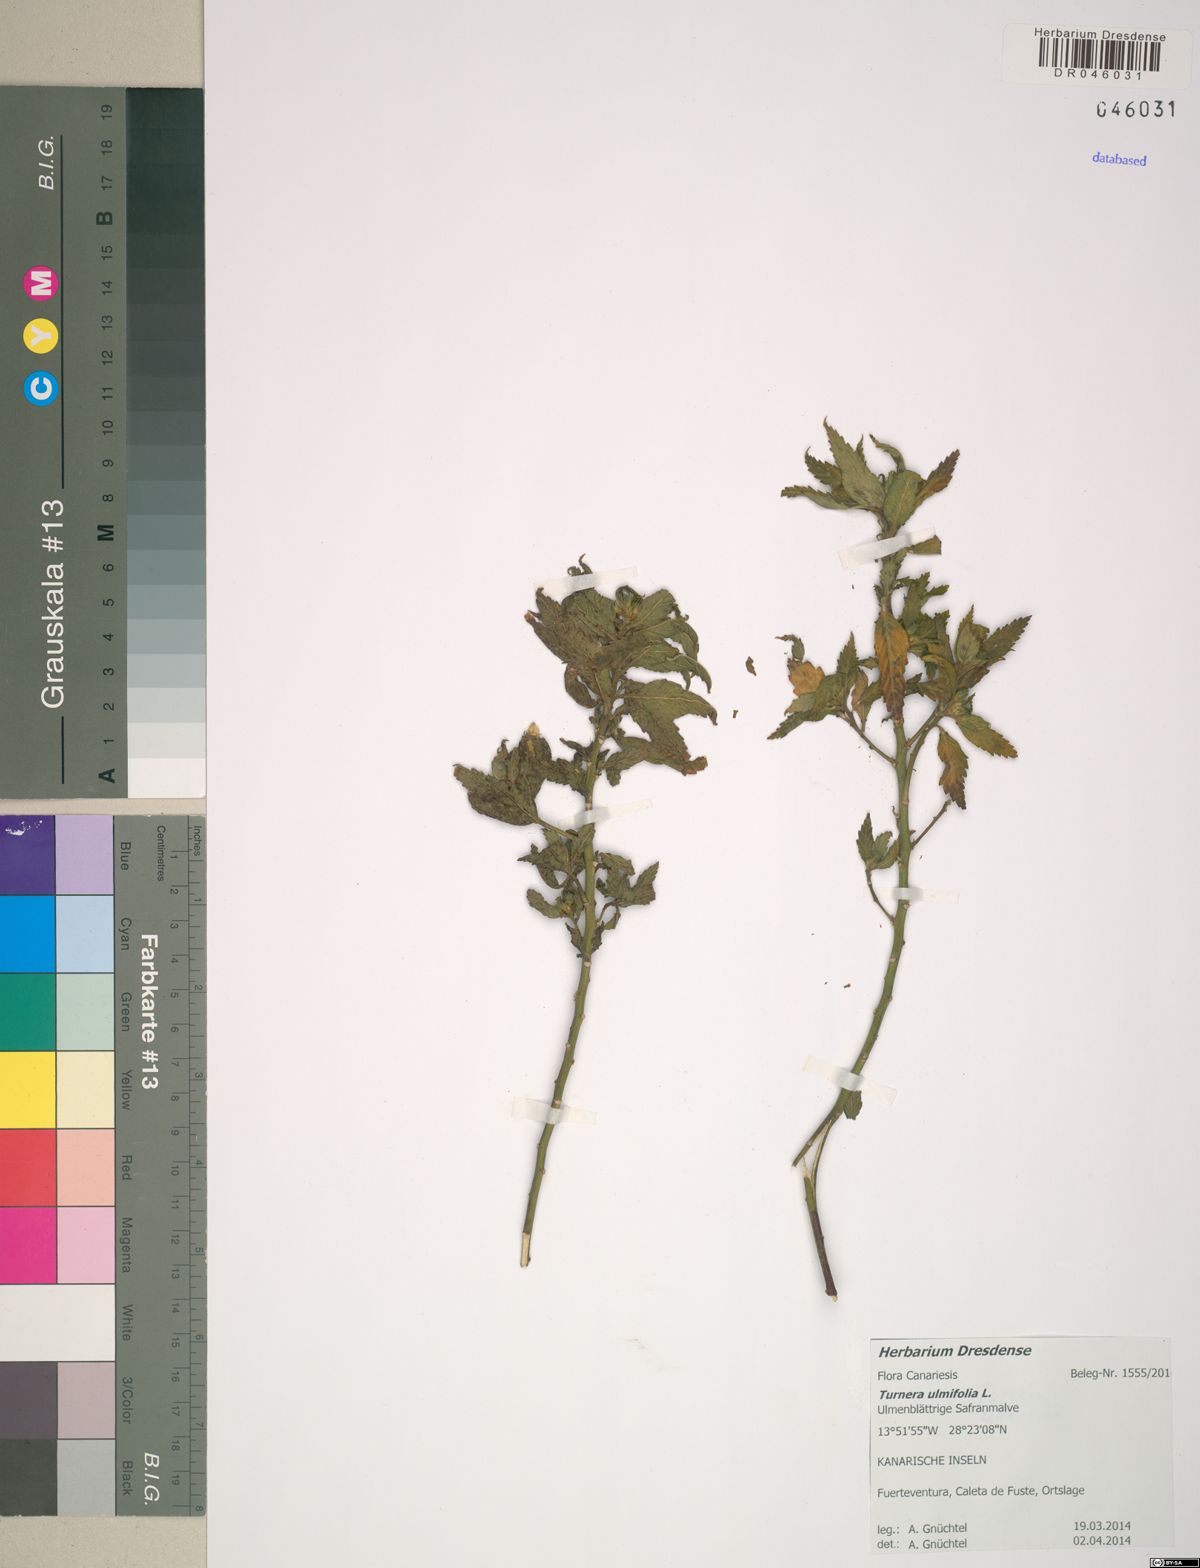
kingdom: Plantae
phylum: Tracheophyta
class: Magnoliopsida
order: Malpighiales
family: Turneraceae
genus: Turnera
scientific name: Turnera ulmifolia
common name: Ramgoat dashalong
